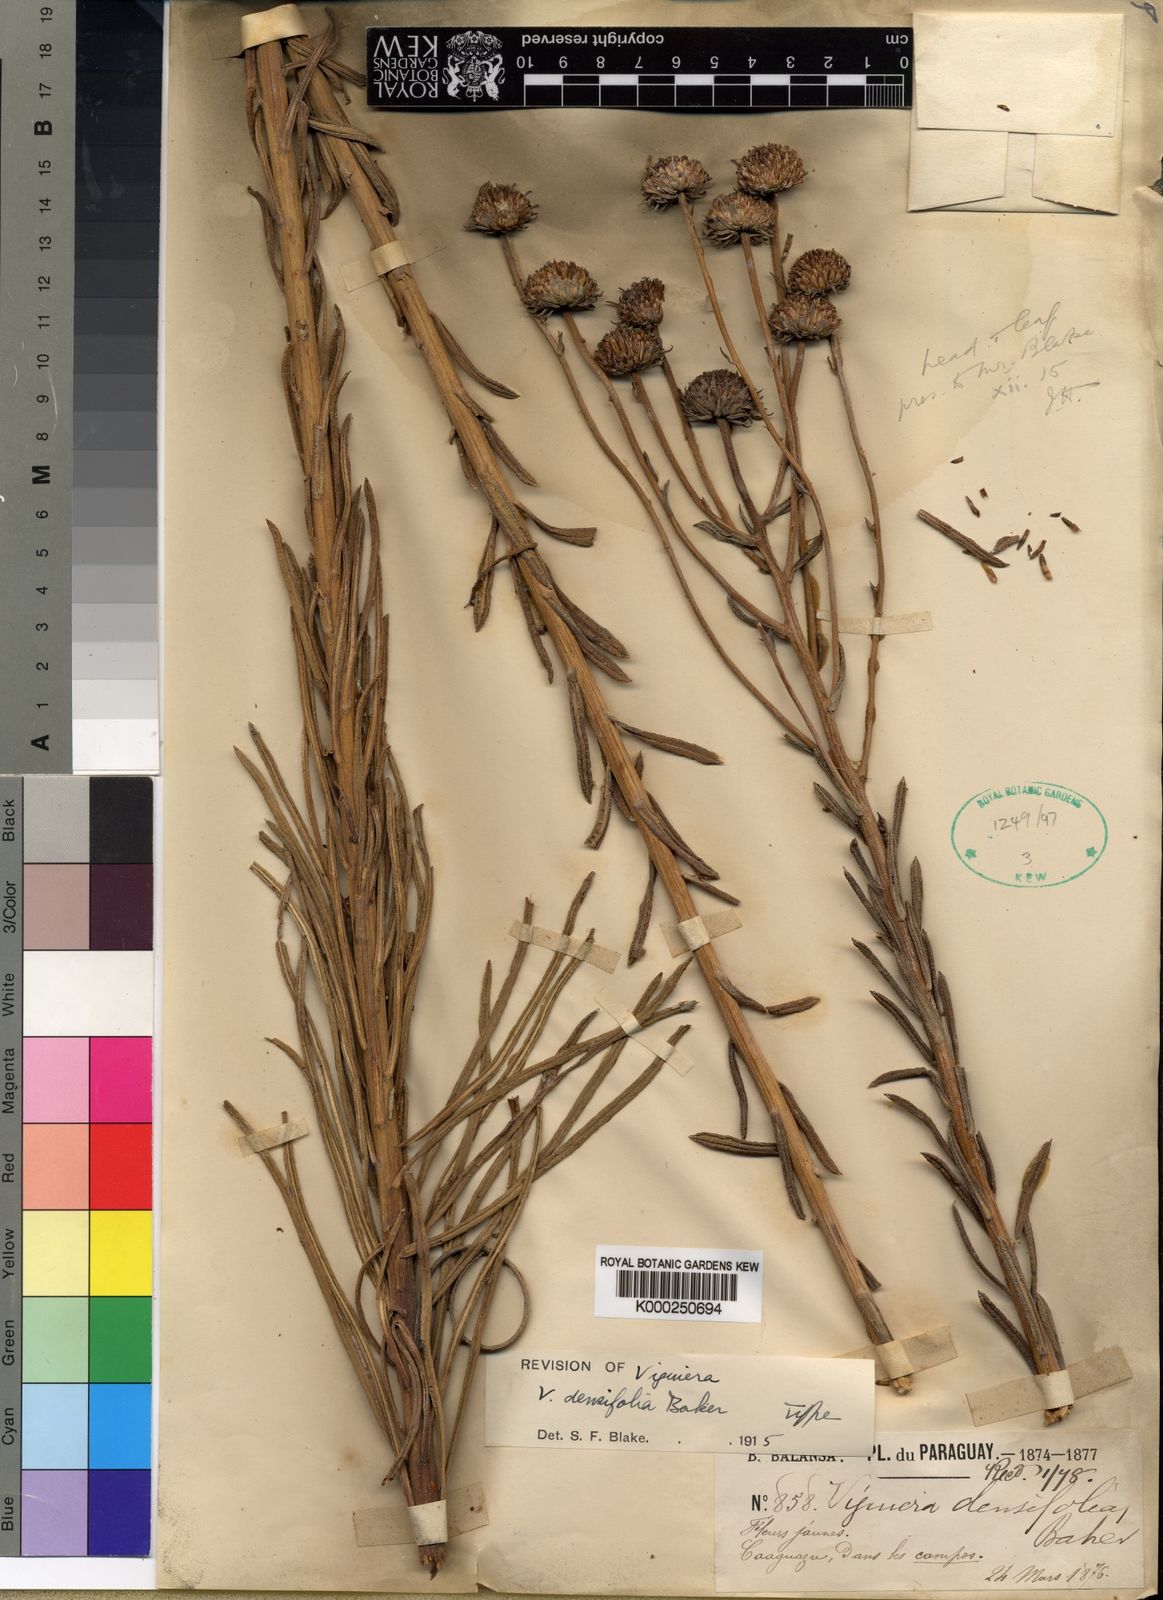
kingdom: Plantae
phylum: Tracheophyta
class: Magnoliopsida
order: Asterales
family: Asteraceae
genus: Aldama
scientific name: Aldama densifolia
